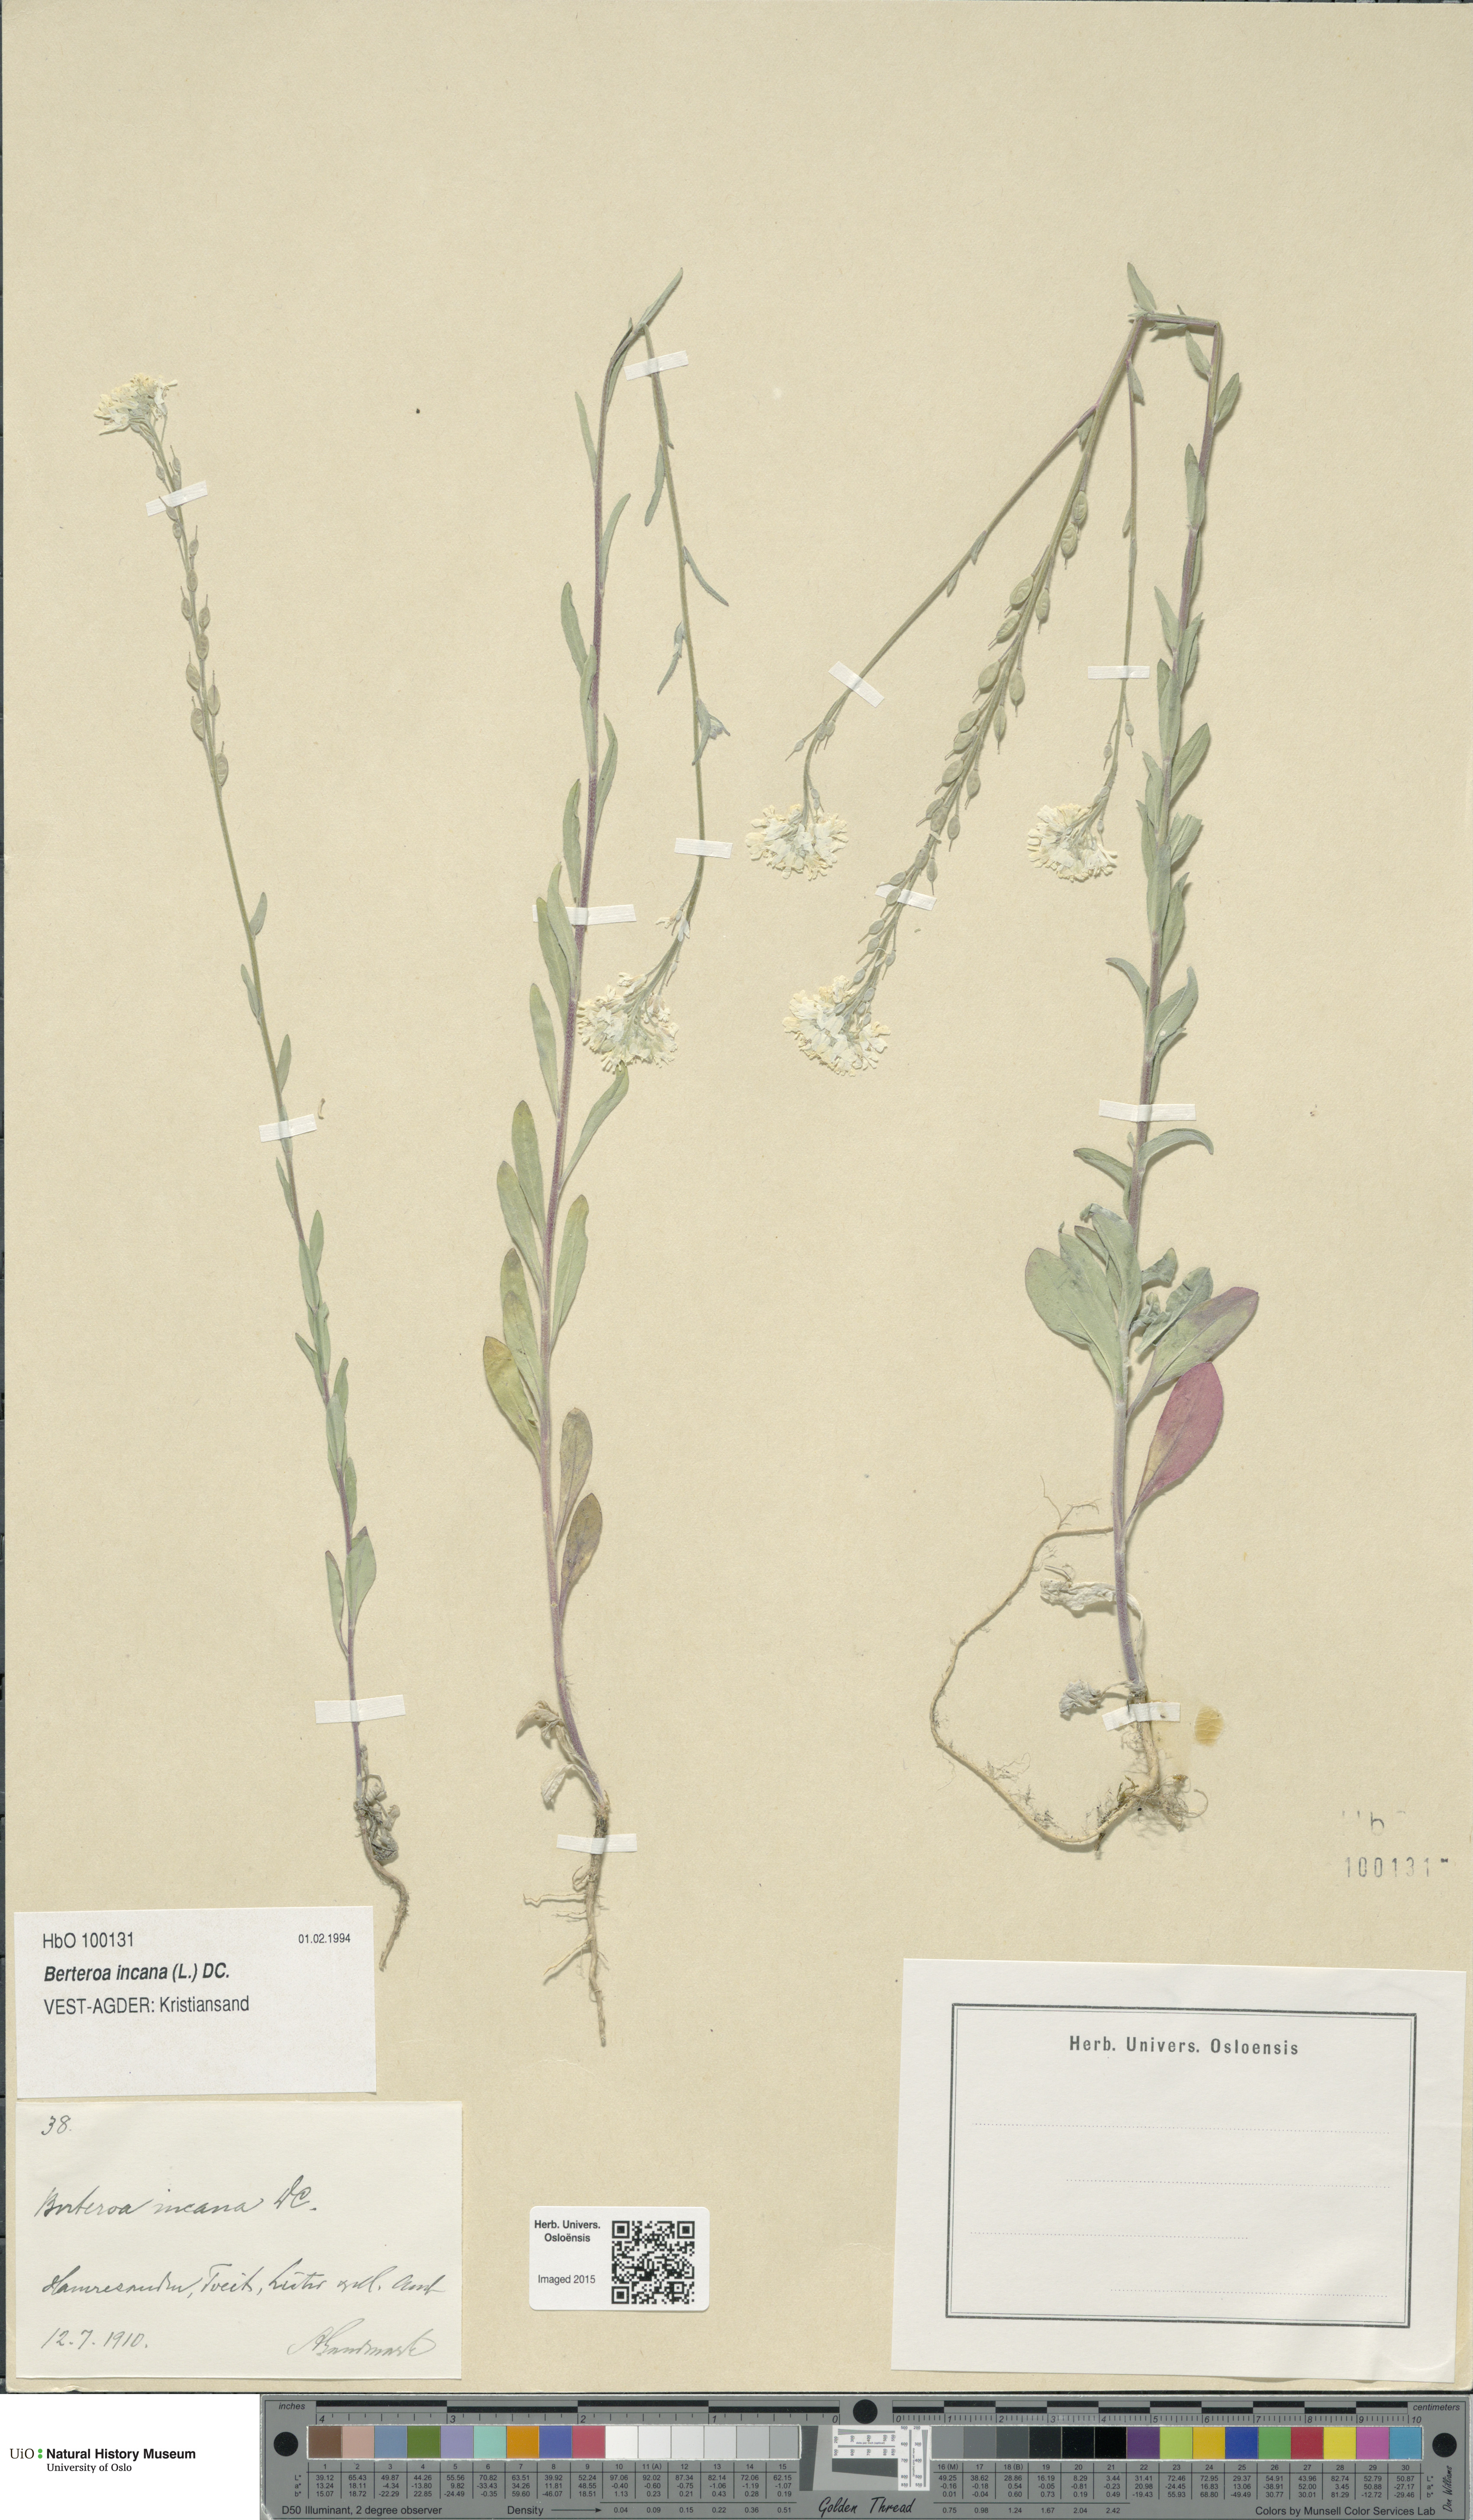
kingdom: Plantae
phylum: Tracheophyta
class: Magnoliopsida
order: Brassicales
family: Brassicaceae
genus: Berteroa
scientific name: Berteroa incana
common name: Hoary alison
